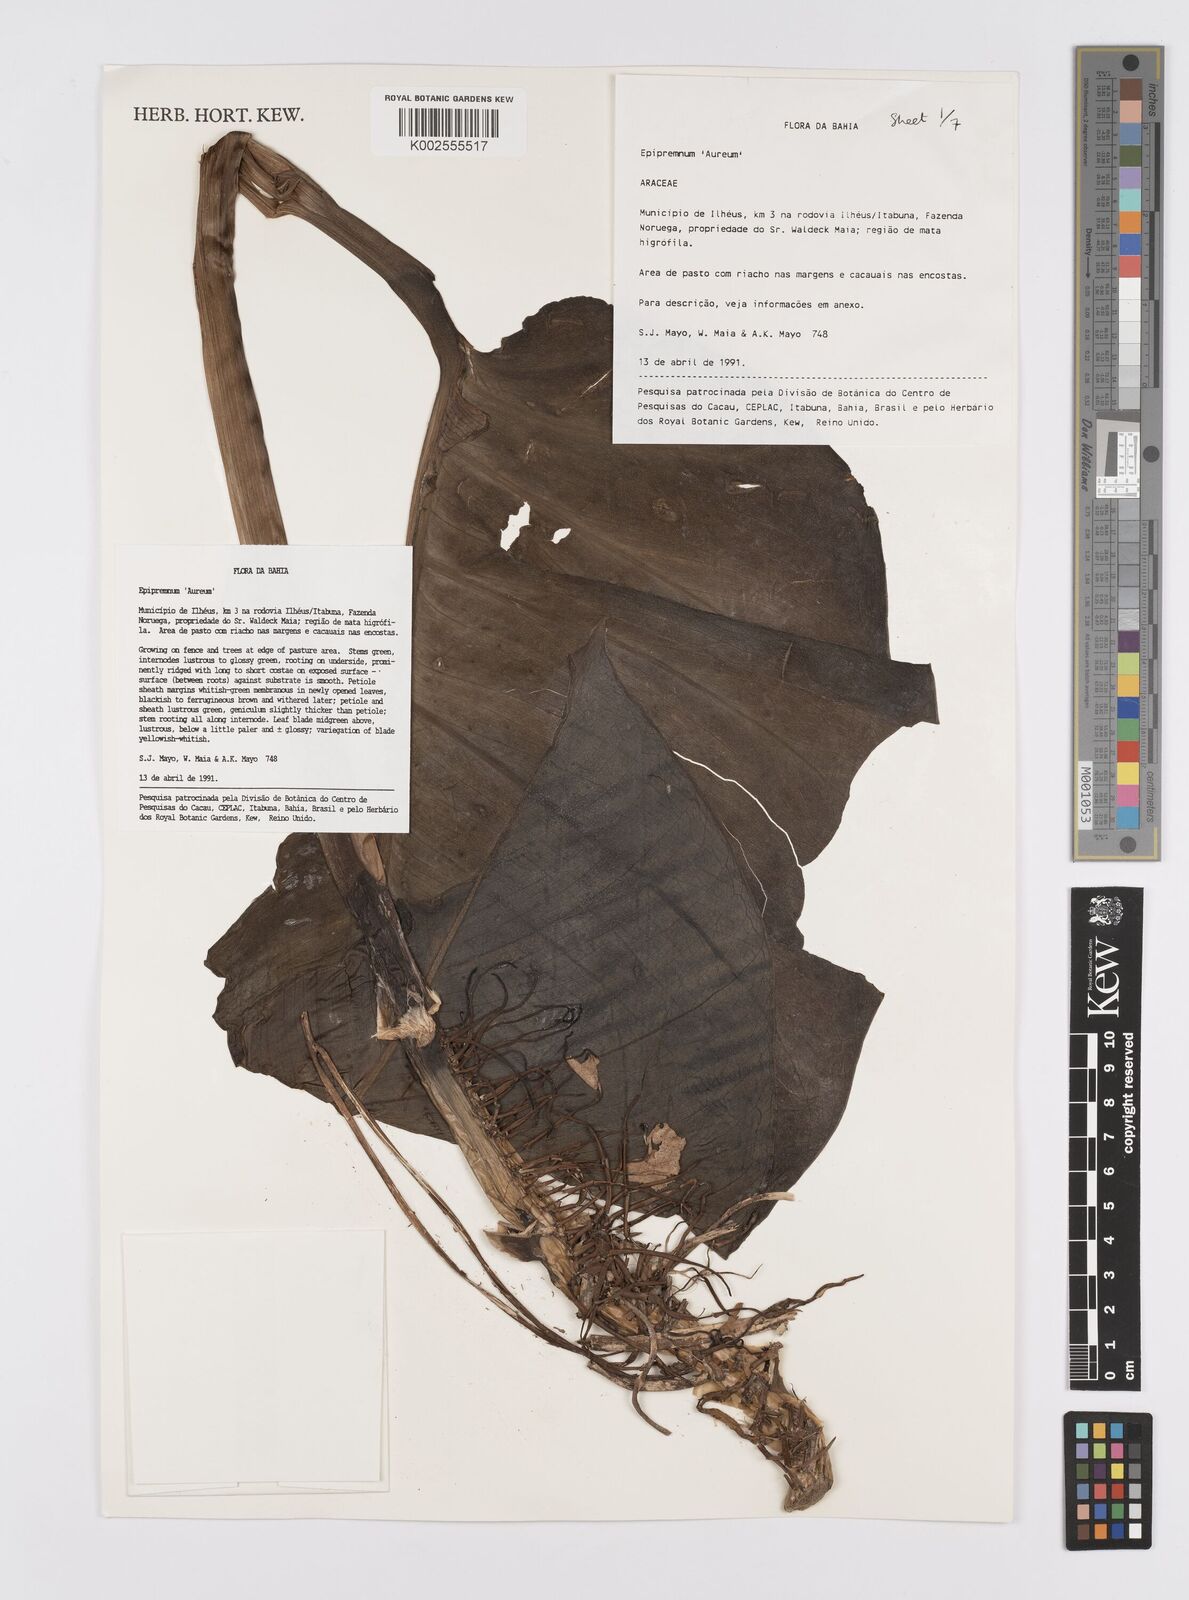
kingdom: Plantae
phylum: Tracheophyta
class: Liliopsida
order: Alismatales
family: Araceae
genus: Epipremnum
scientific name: Epipremnum aureum
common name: Golden hunter's-robe
